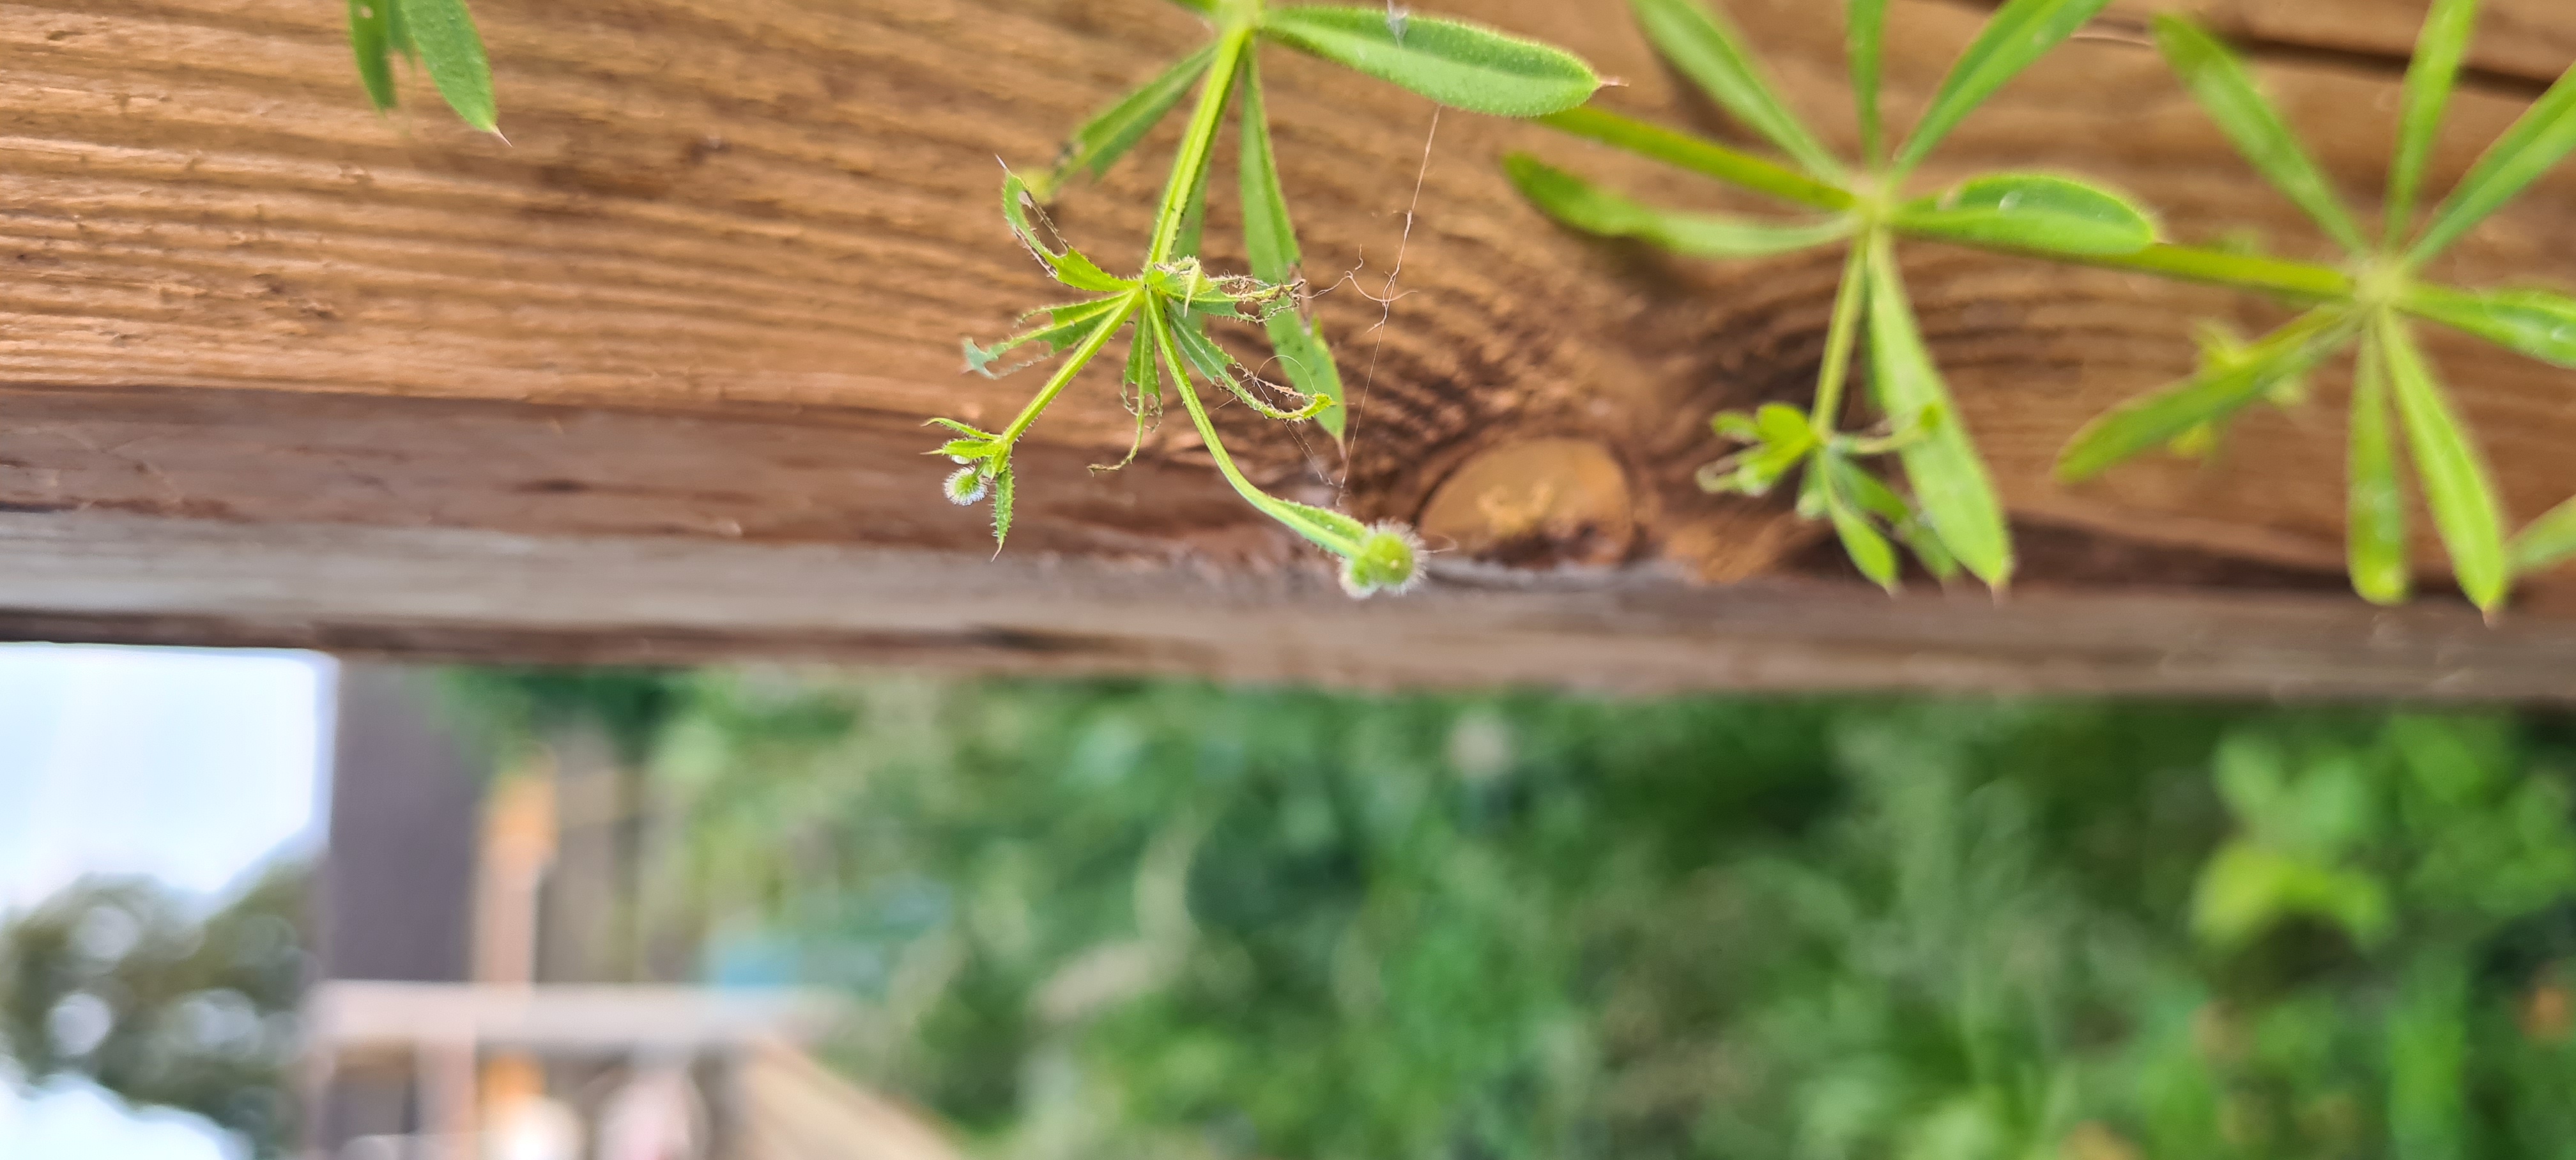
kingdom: Plantae
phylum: Tracheophyta
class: Magnoliopsida
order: Gentianales
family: Rubiaceae
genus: Galium
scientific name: Galium aparine
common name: Burre-snerre
